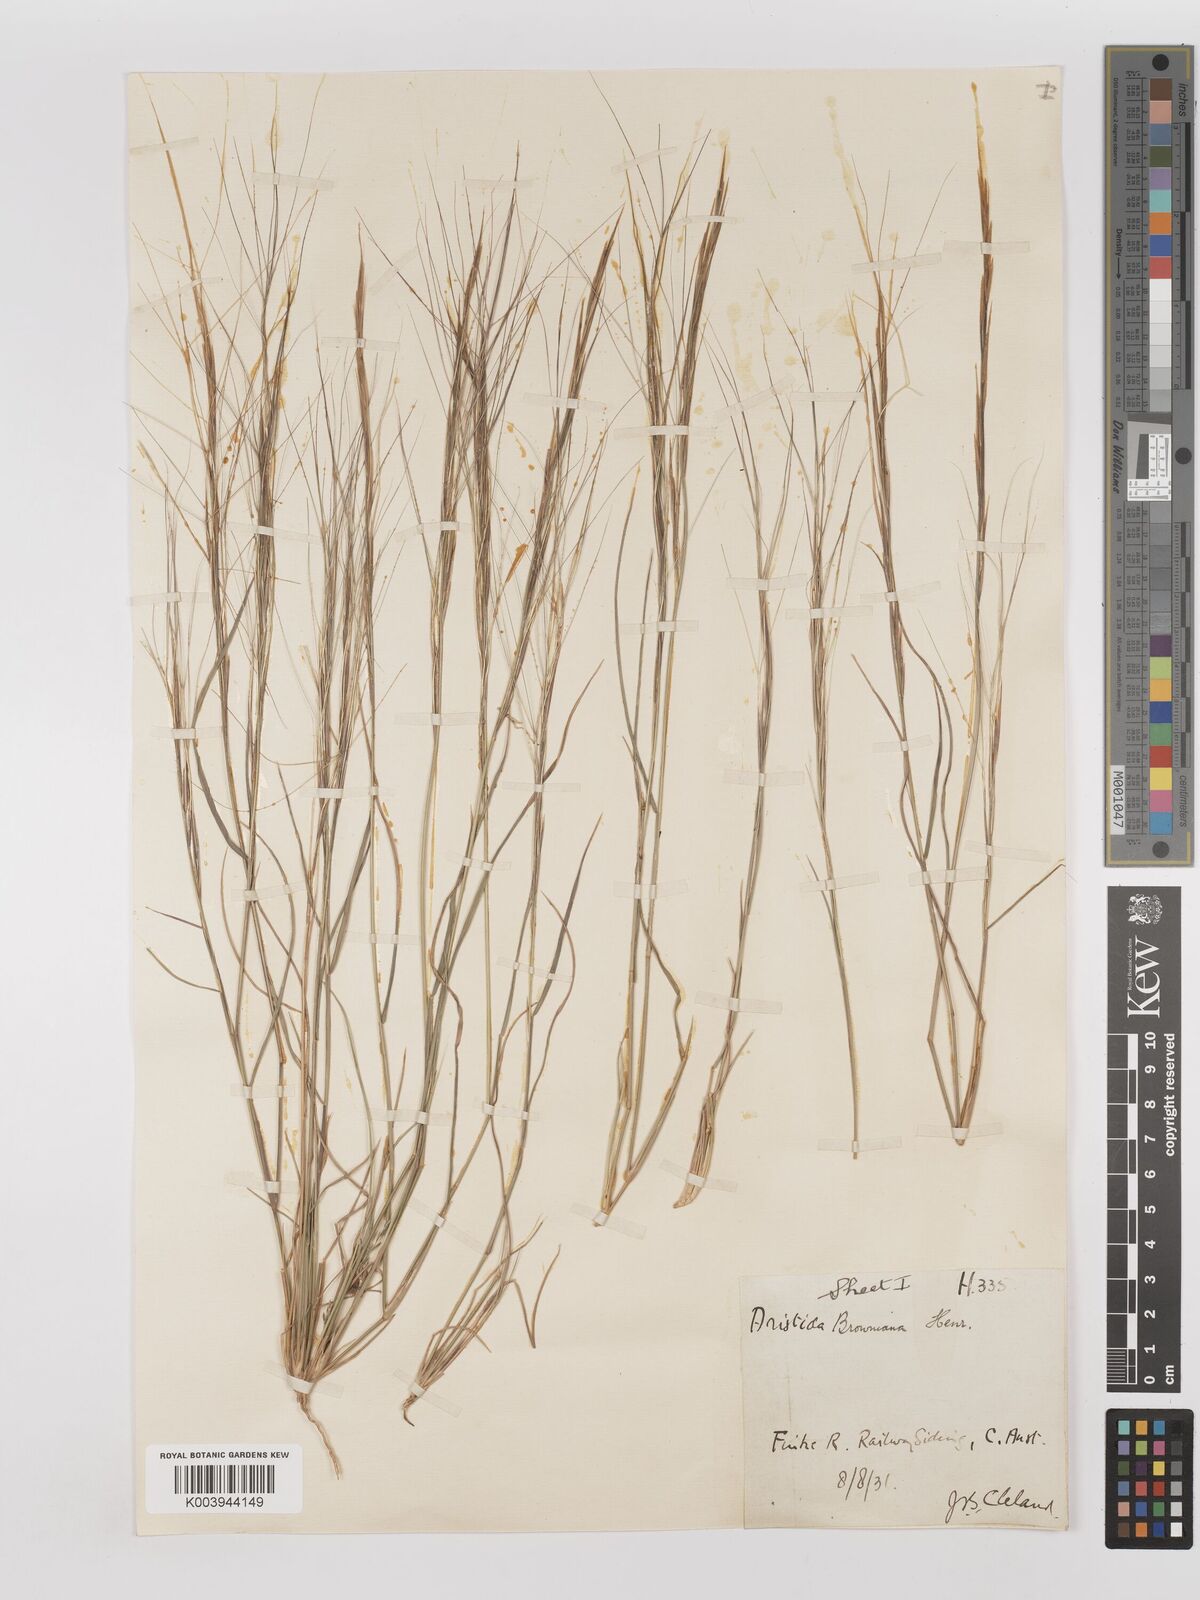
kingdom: Plantae
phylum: Tracheophyta
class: Liliopsida
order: Poales
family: Poaceae
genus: Aristida
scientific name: Aristida holathera
